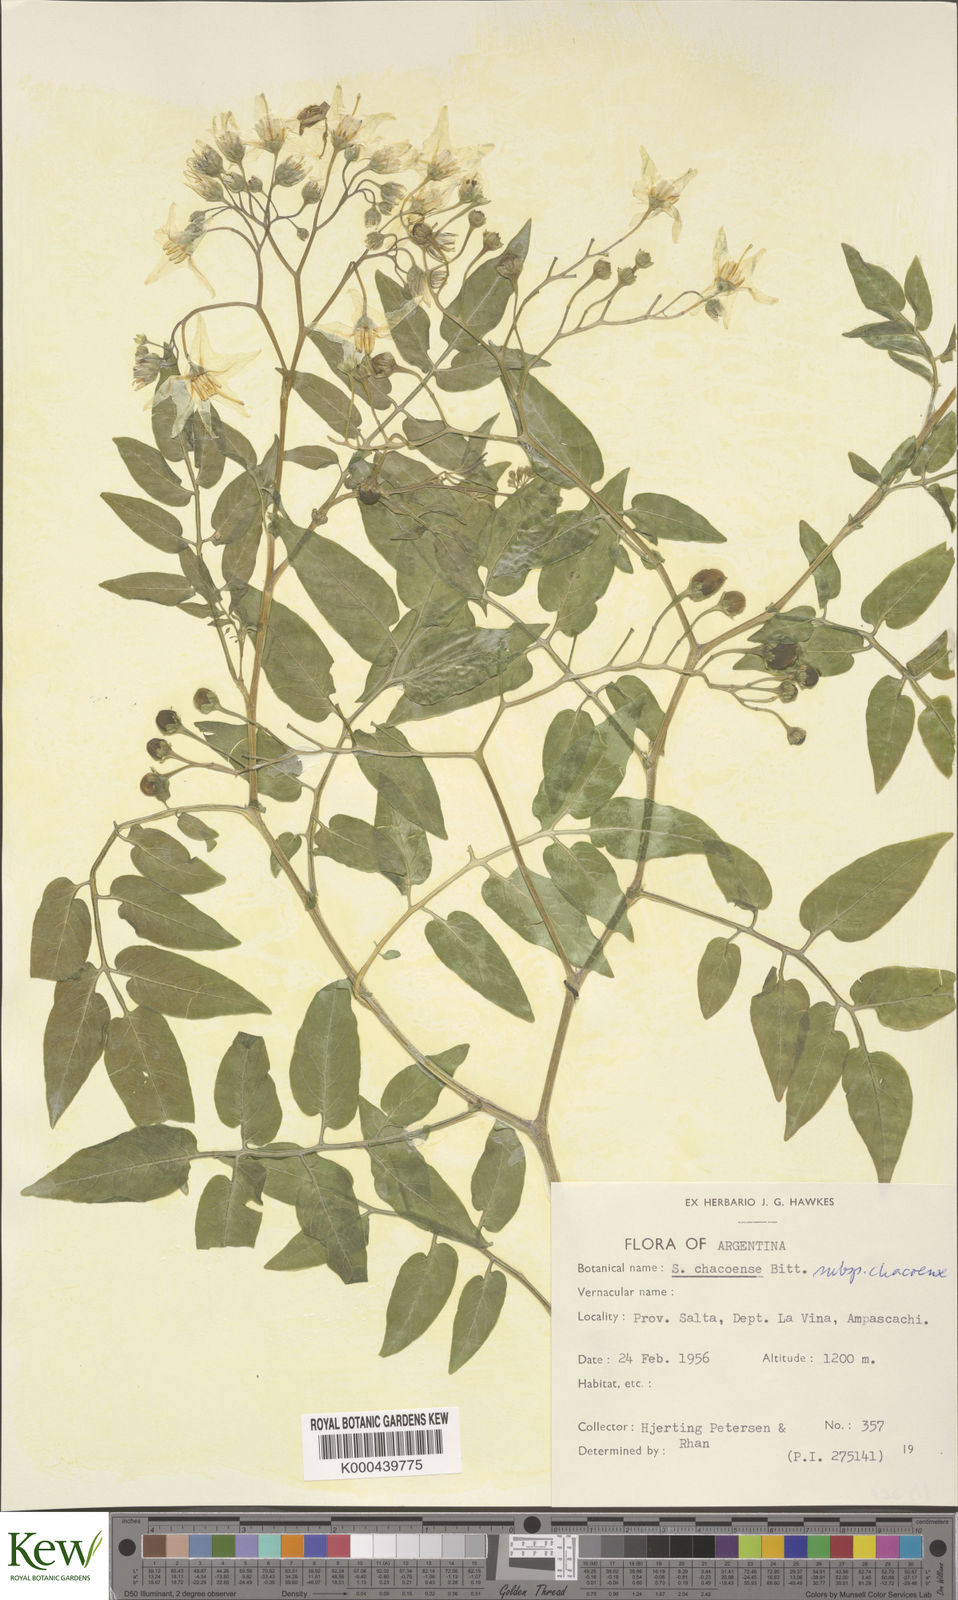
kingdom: Plantae
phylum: Tracheophyta
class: Magnoliopsida
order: Solanales
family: Solanaceae
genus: Solanum
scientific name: Solanum chacoense
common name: Chaco potato
